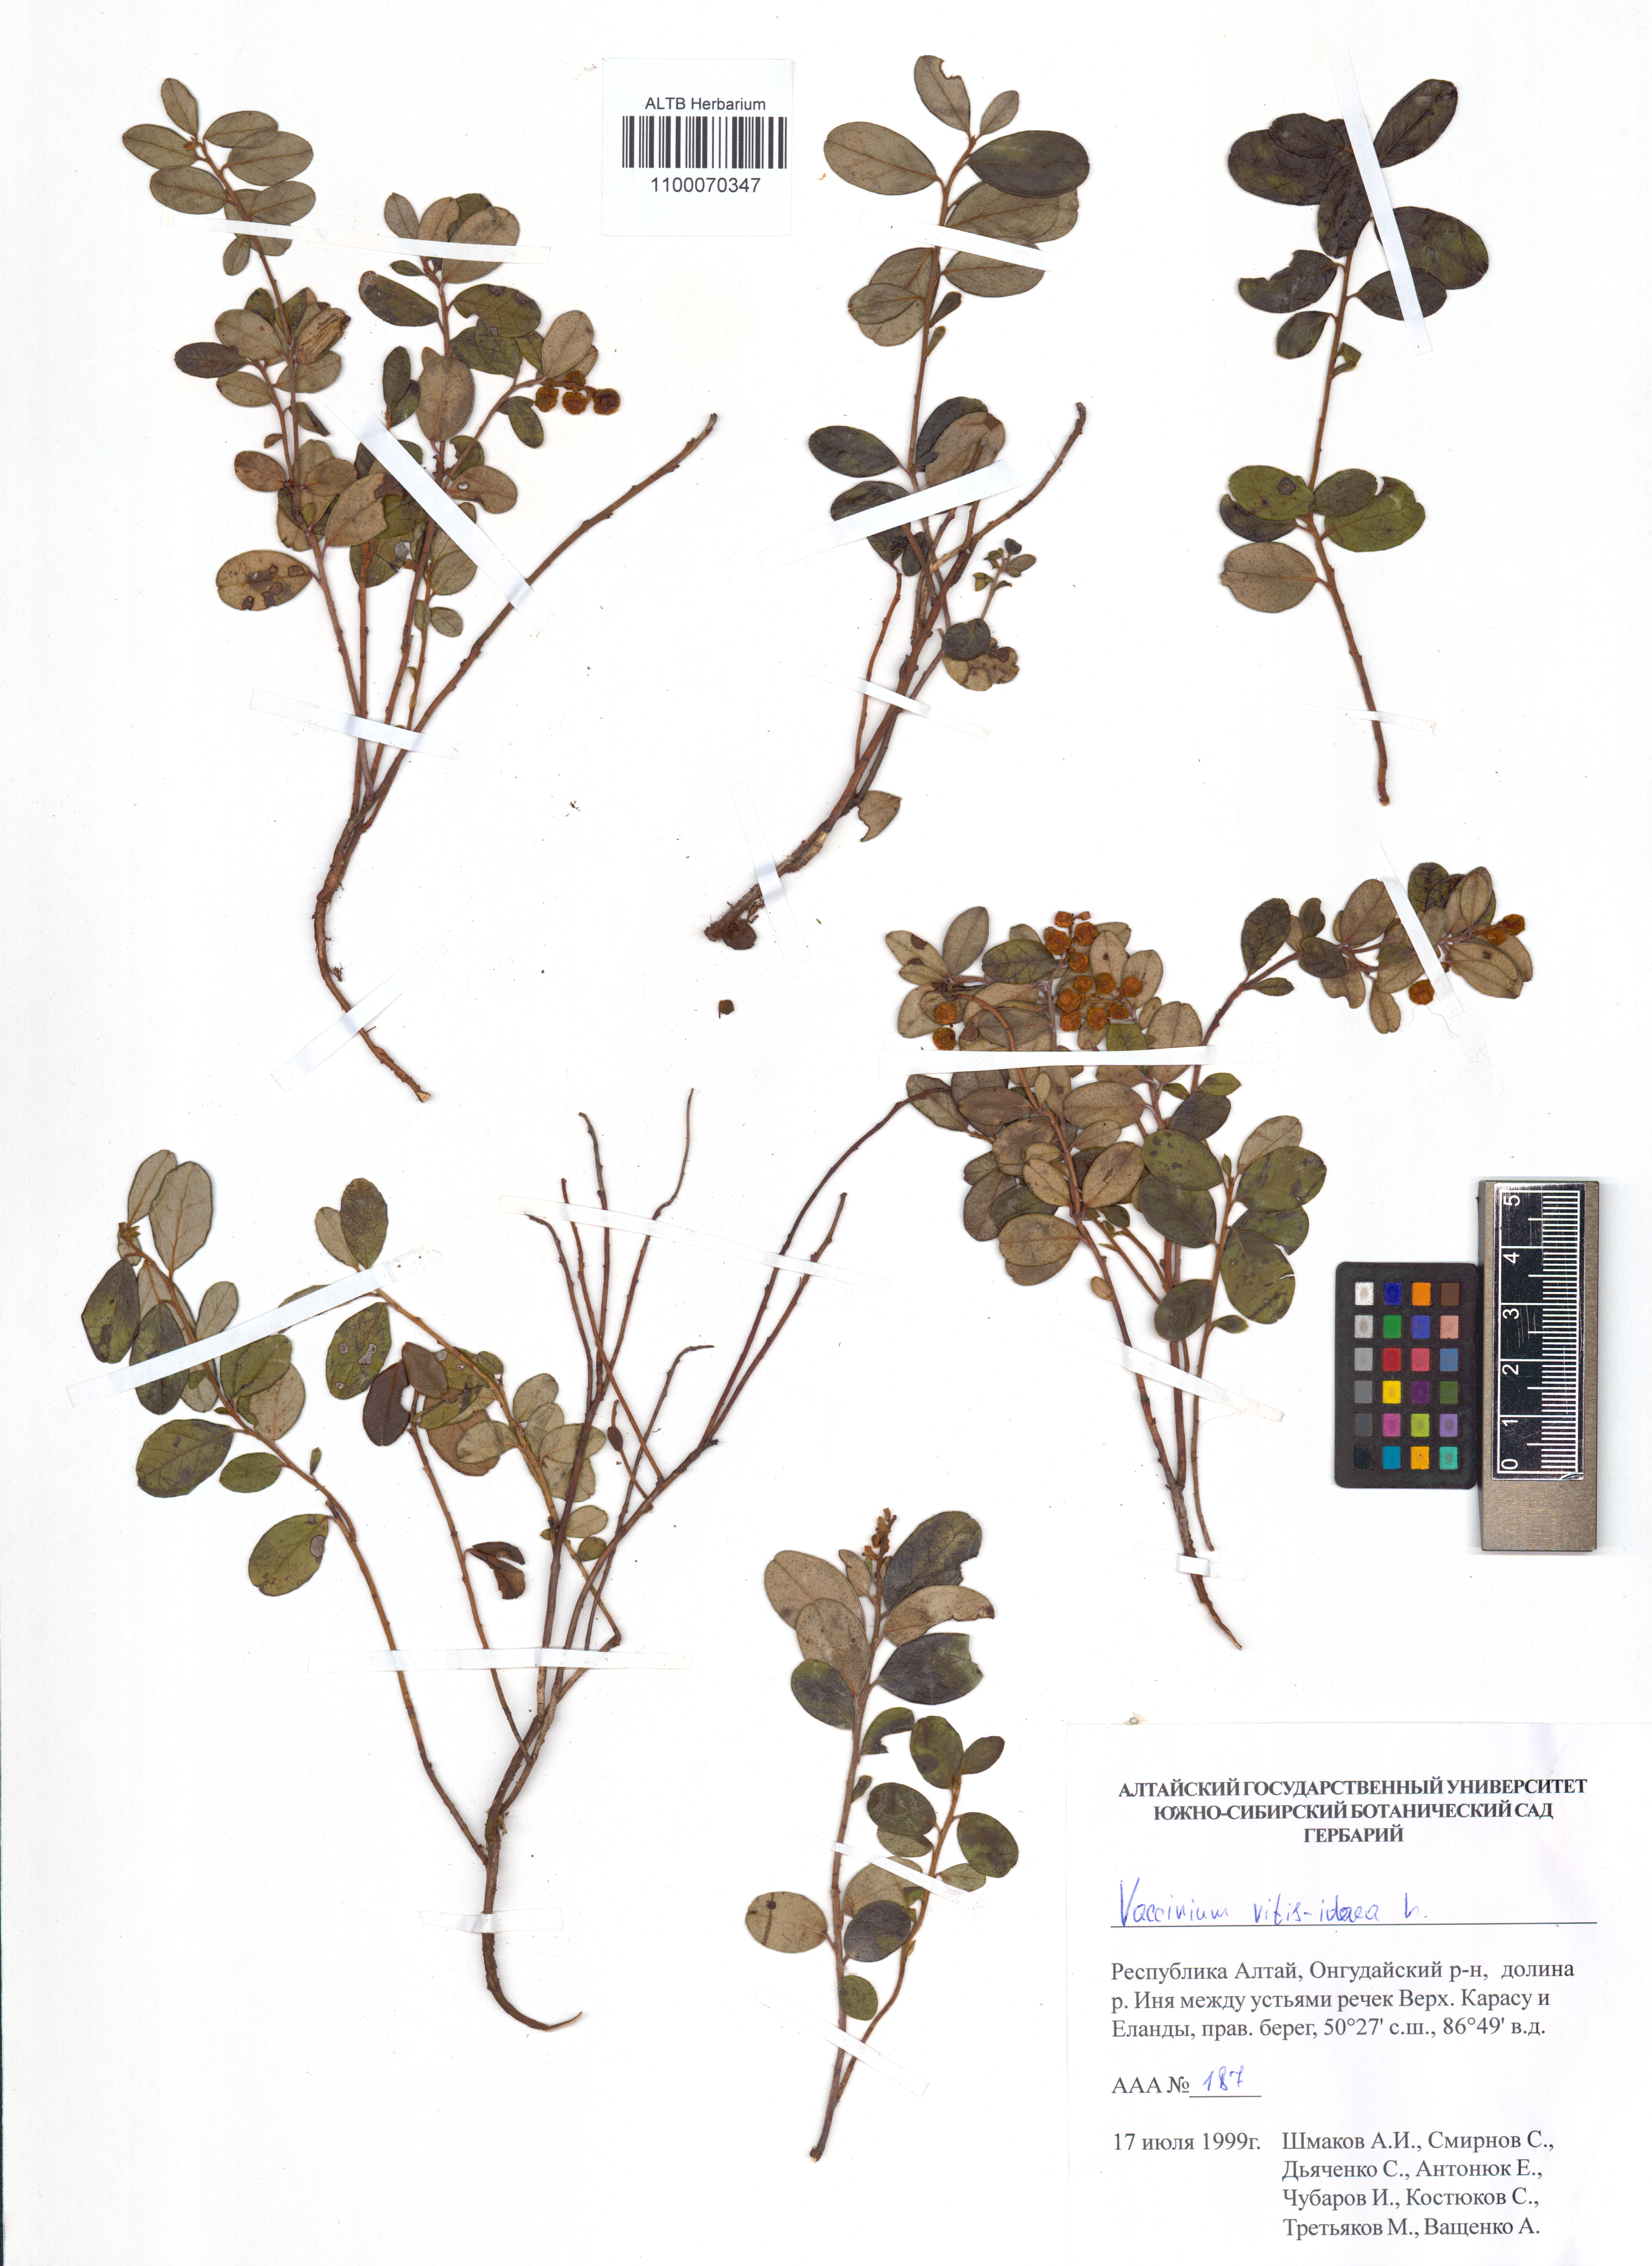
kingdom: Plantae
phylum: Tracheophyta
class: Magnoliopsida
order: Ericales
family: Ericaceae
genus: Vaccinium
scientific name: Vaccinium vitis-idaea
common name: Cowberry
